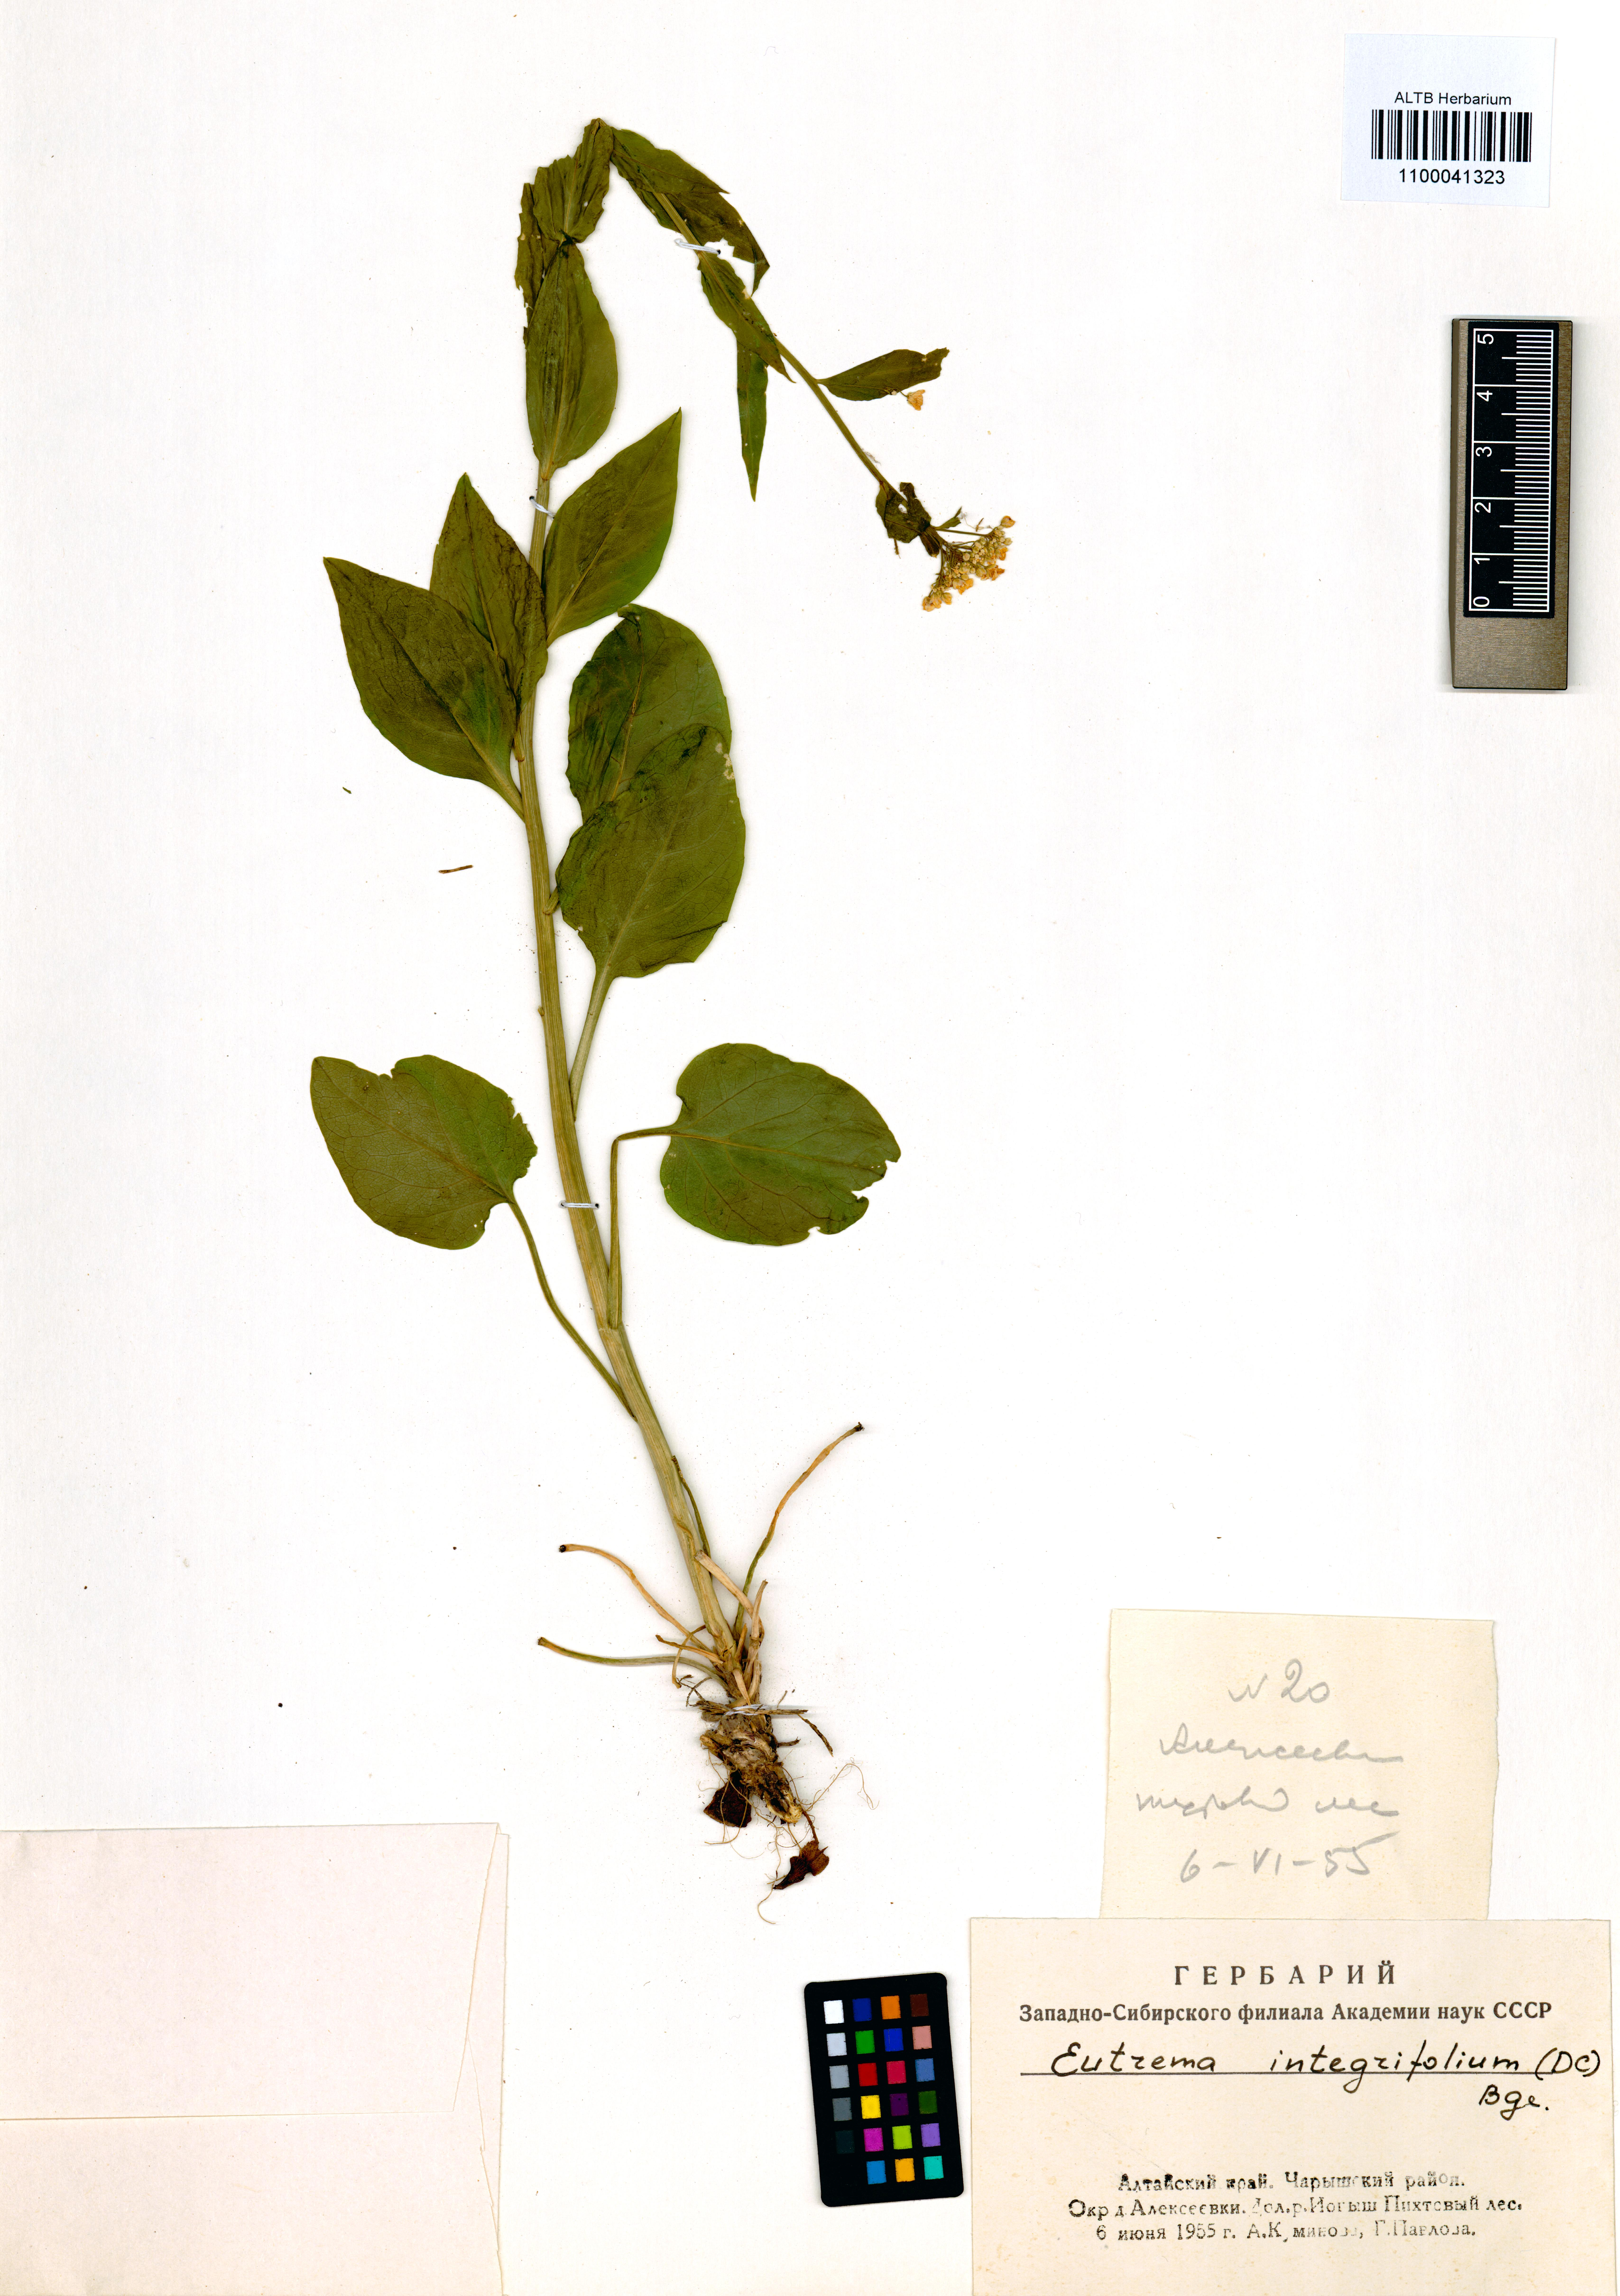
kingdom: Plantae
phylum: Tracheophyta
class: Magnoliopsida
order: Brassicales
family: Brassicaceae
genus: Eutrema
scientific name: Eutrema integrifolium
